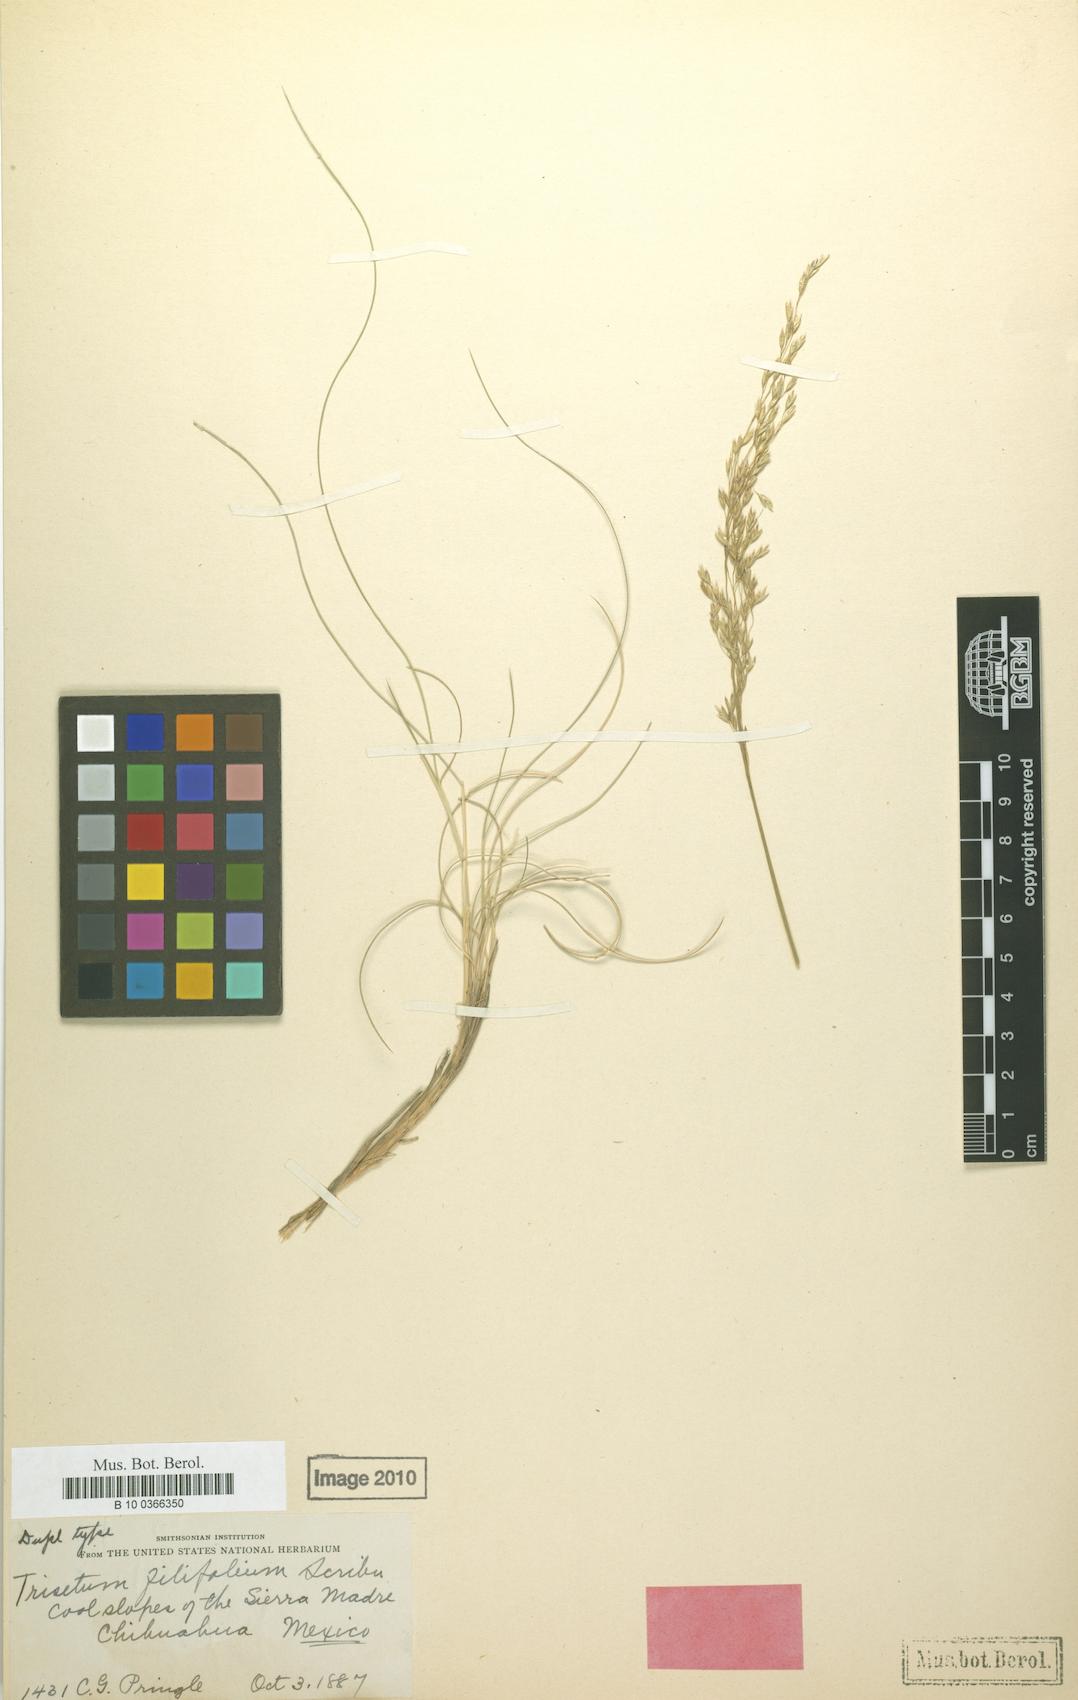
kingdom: Plantae
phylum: Tracheophyta
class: Liliopsida
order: Poales
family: Poaceae
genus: Peyritschia
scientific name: Peyritschia filifolia
